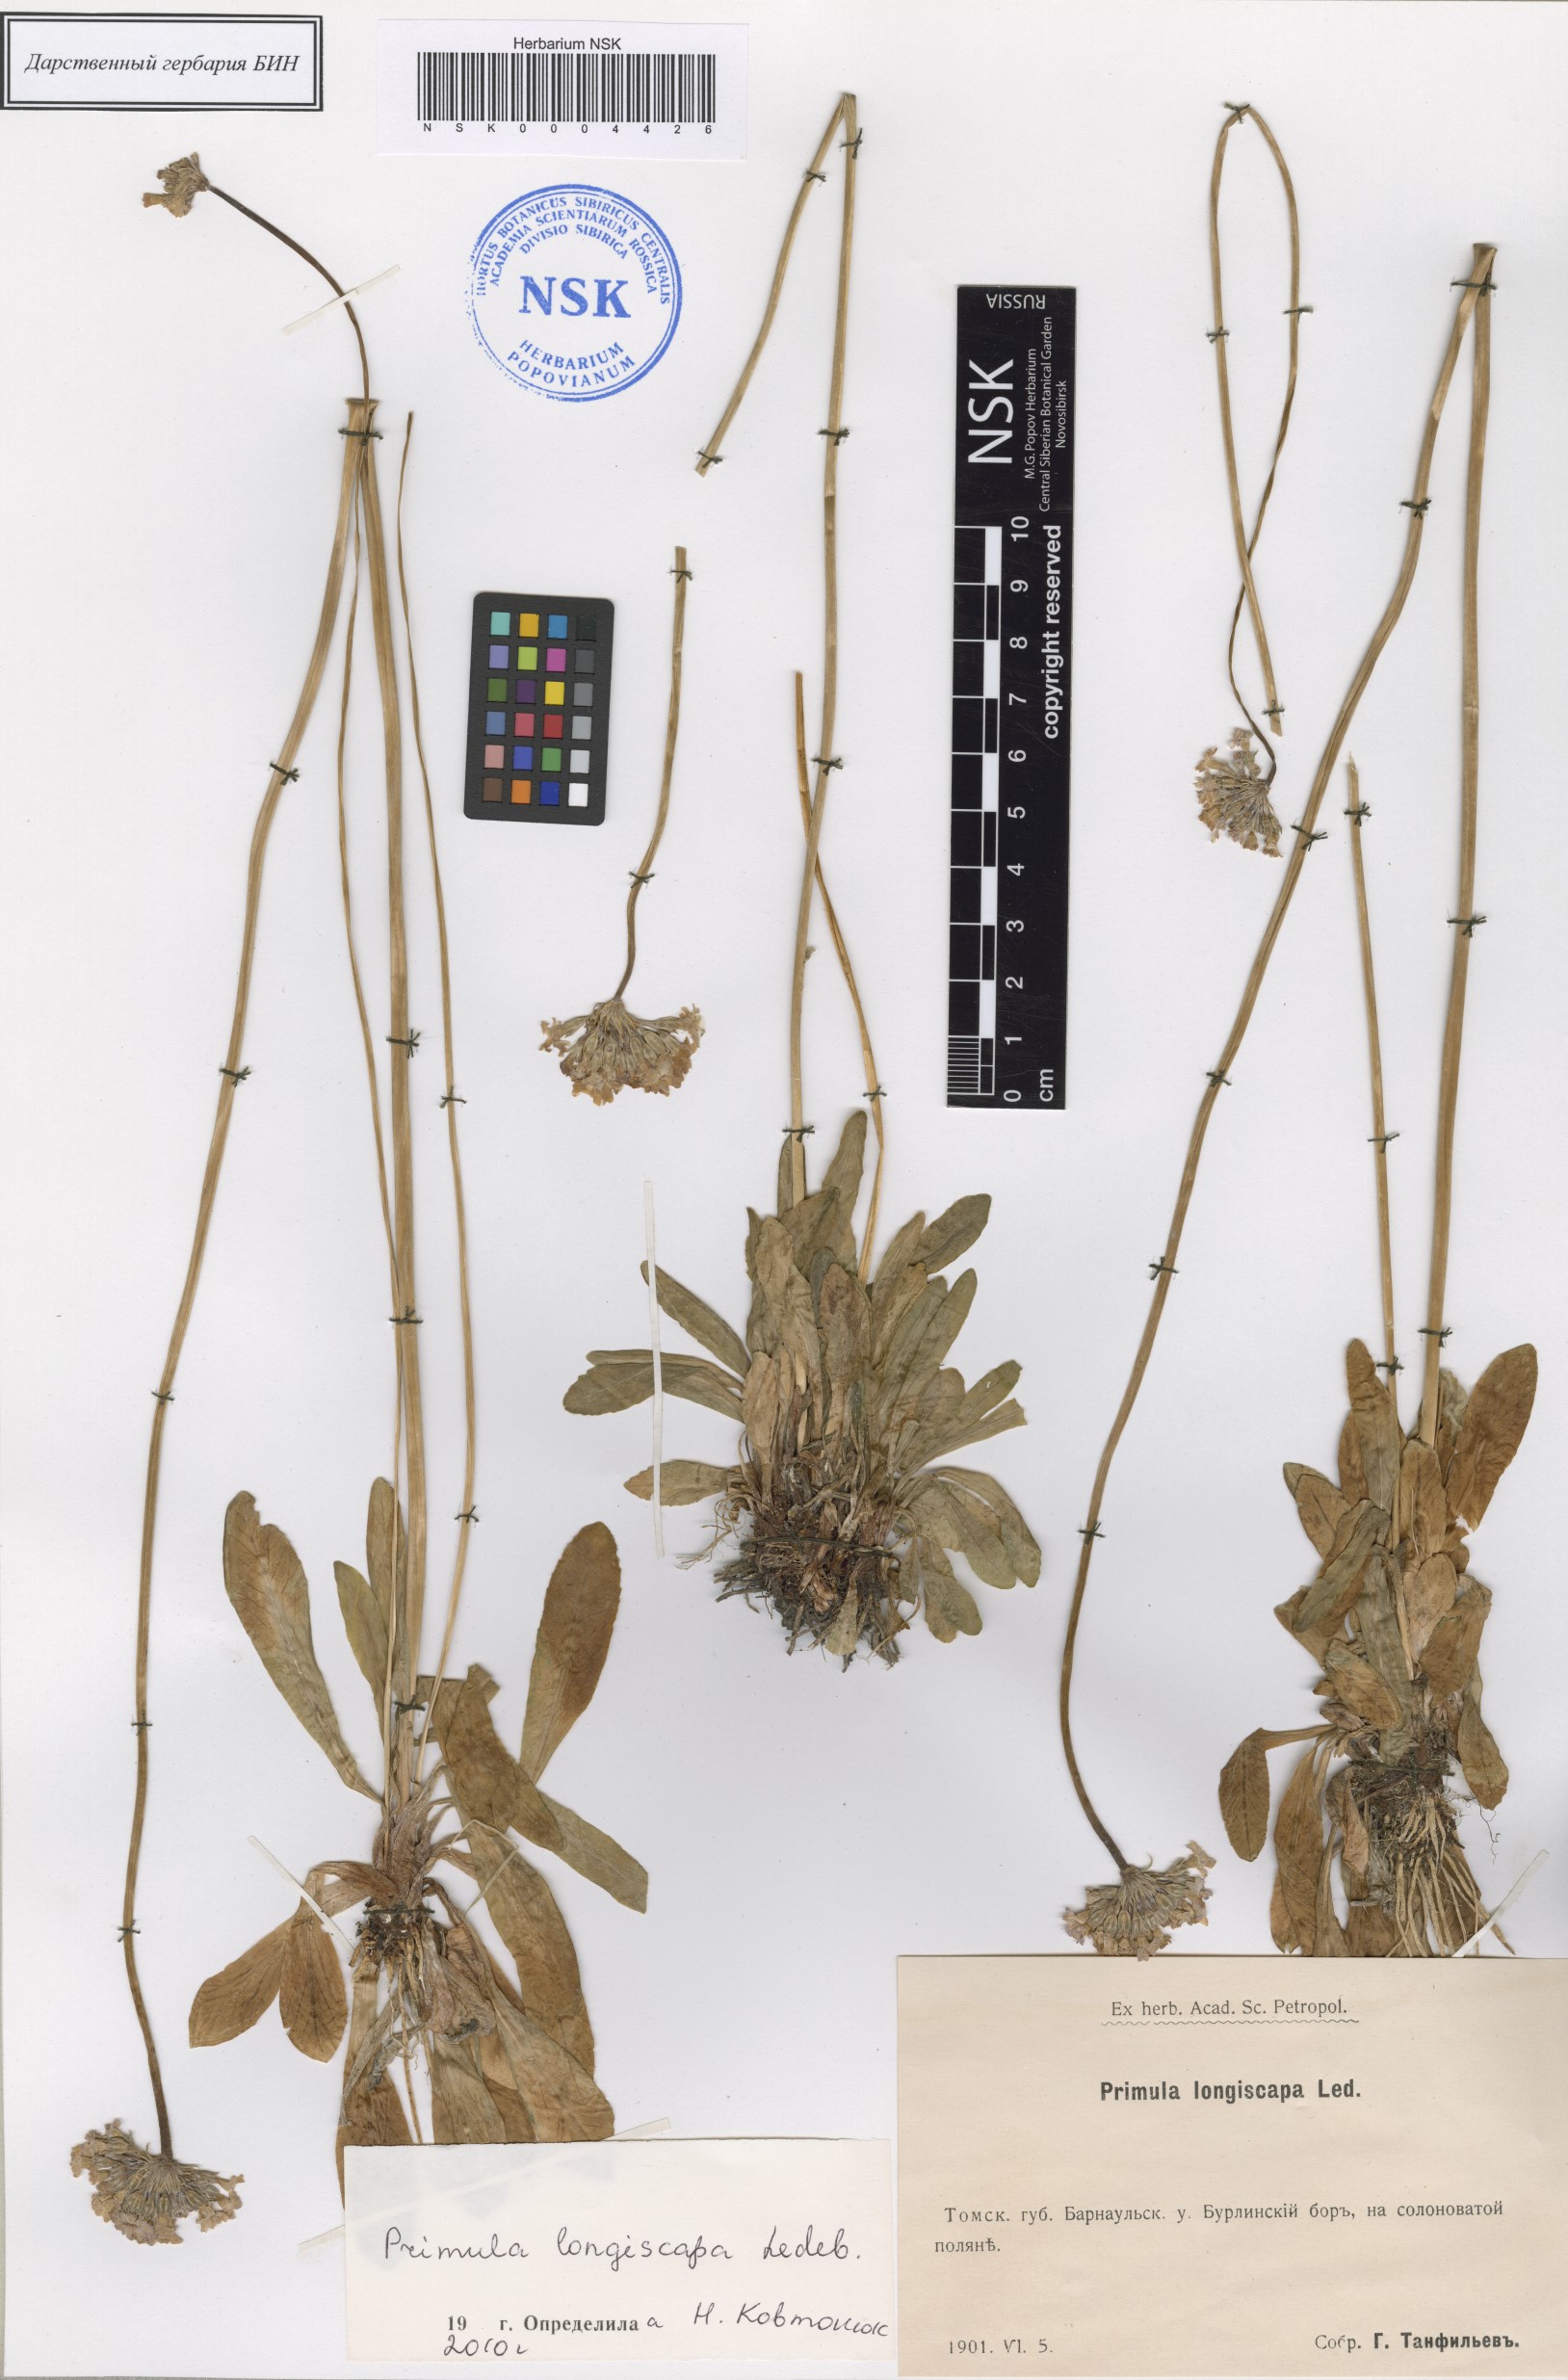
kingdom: Plantae
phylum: Tracheophyta
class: Magnoliopsida
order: Ericales
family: Primulaceae
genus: Primula
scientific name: Primula longiscapa
